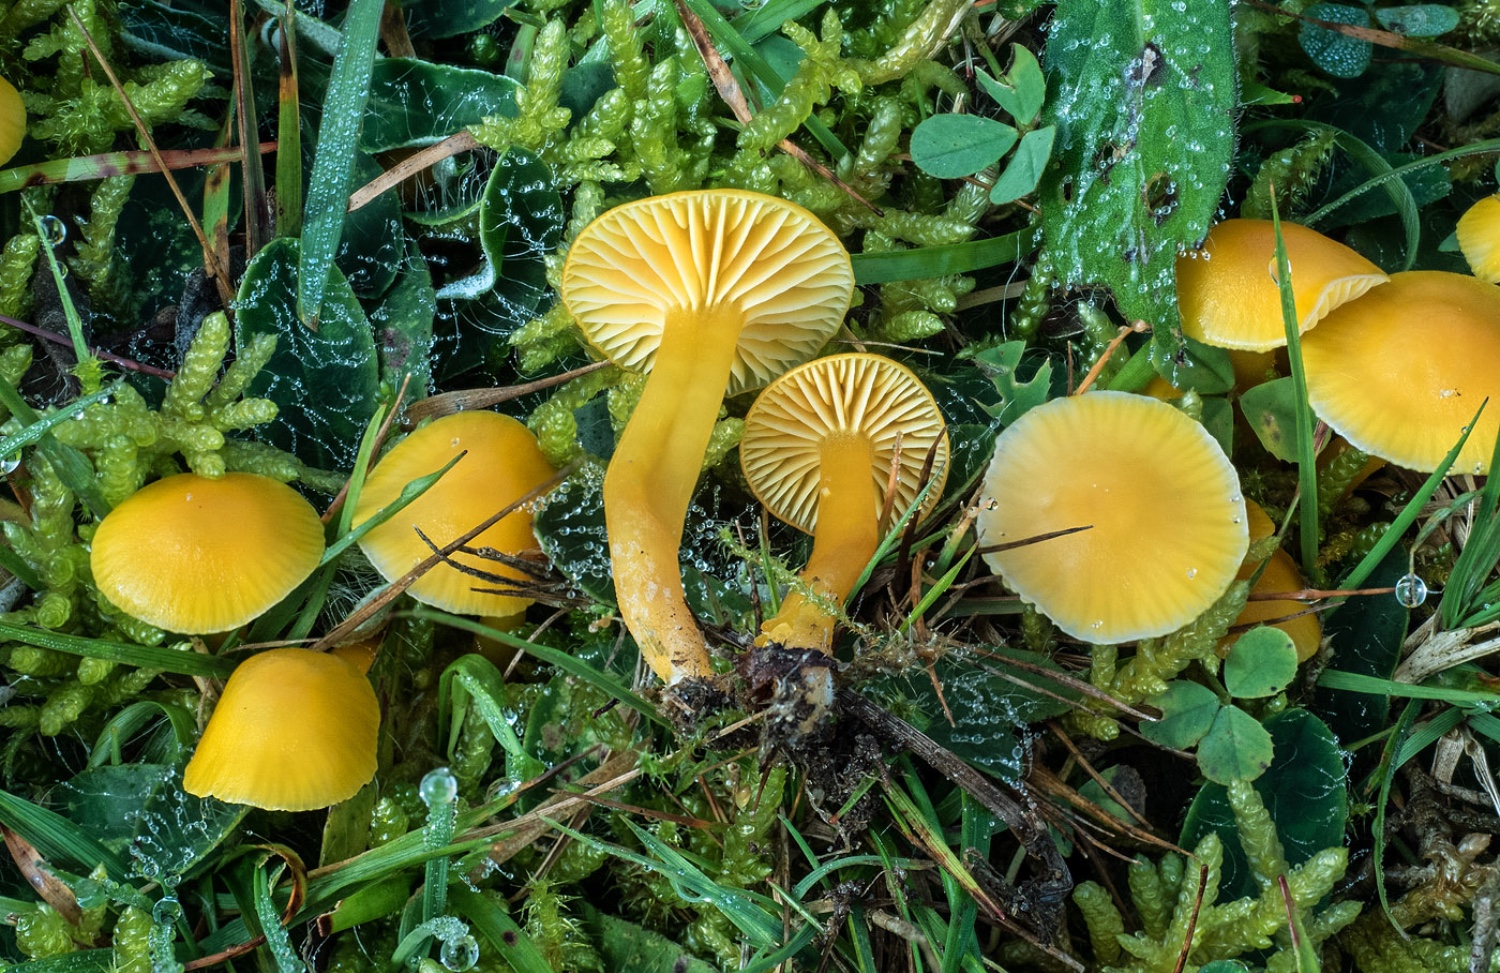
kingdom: Fungi
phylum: Basidiomycota
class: Agaricomycetes
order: Agaricales
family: Hygrophoraceae
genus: Hygrocybe
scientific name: Hygrocybe ceracea
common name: voksgul vokshat
